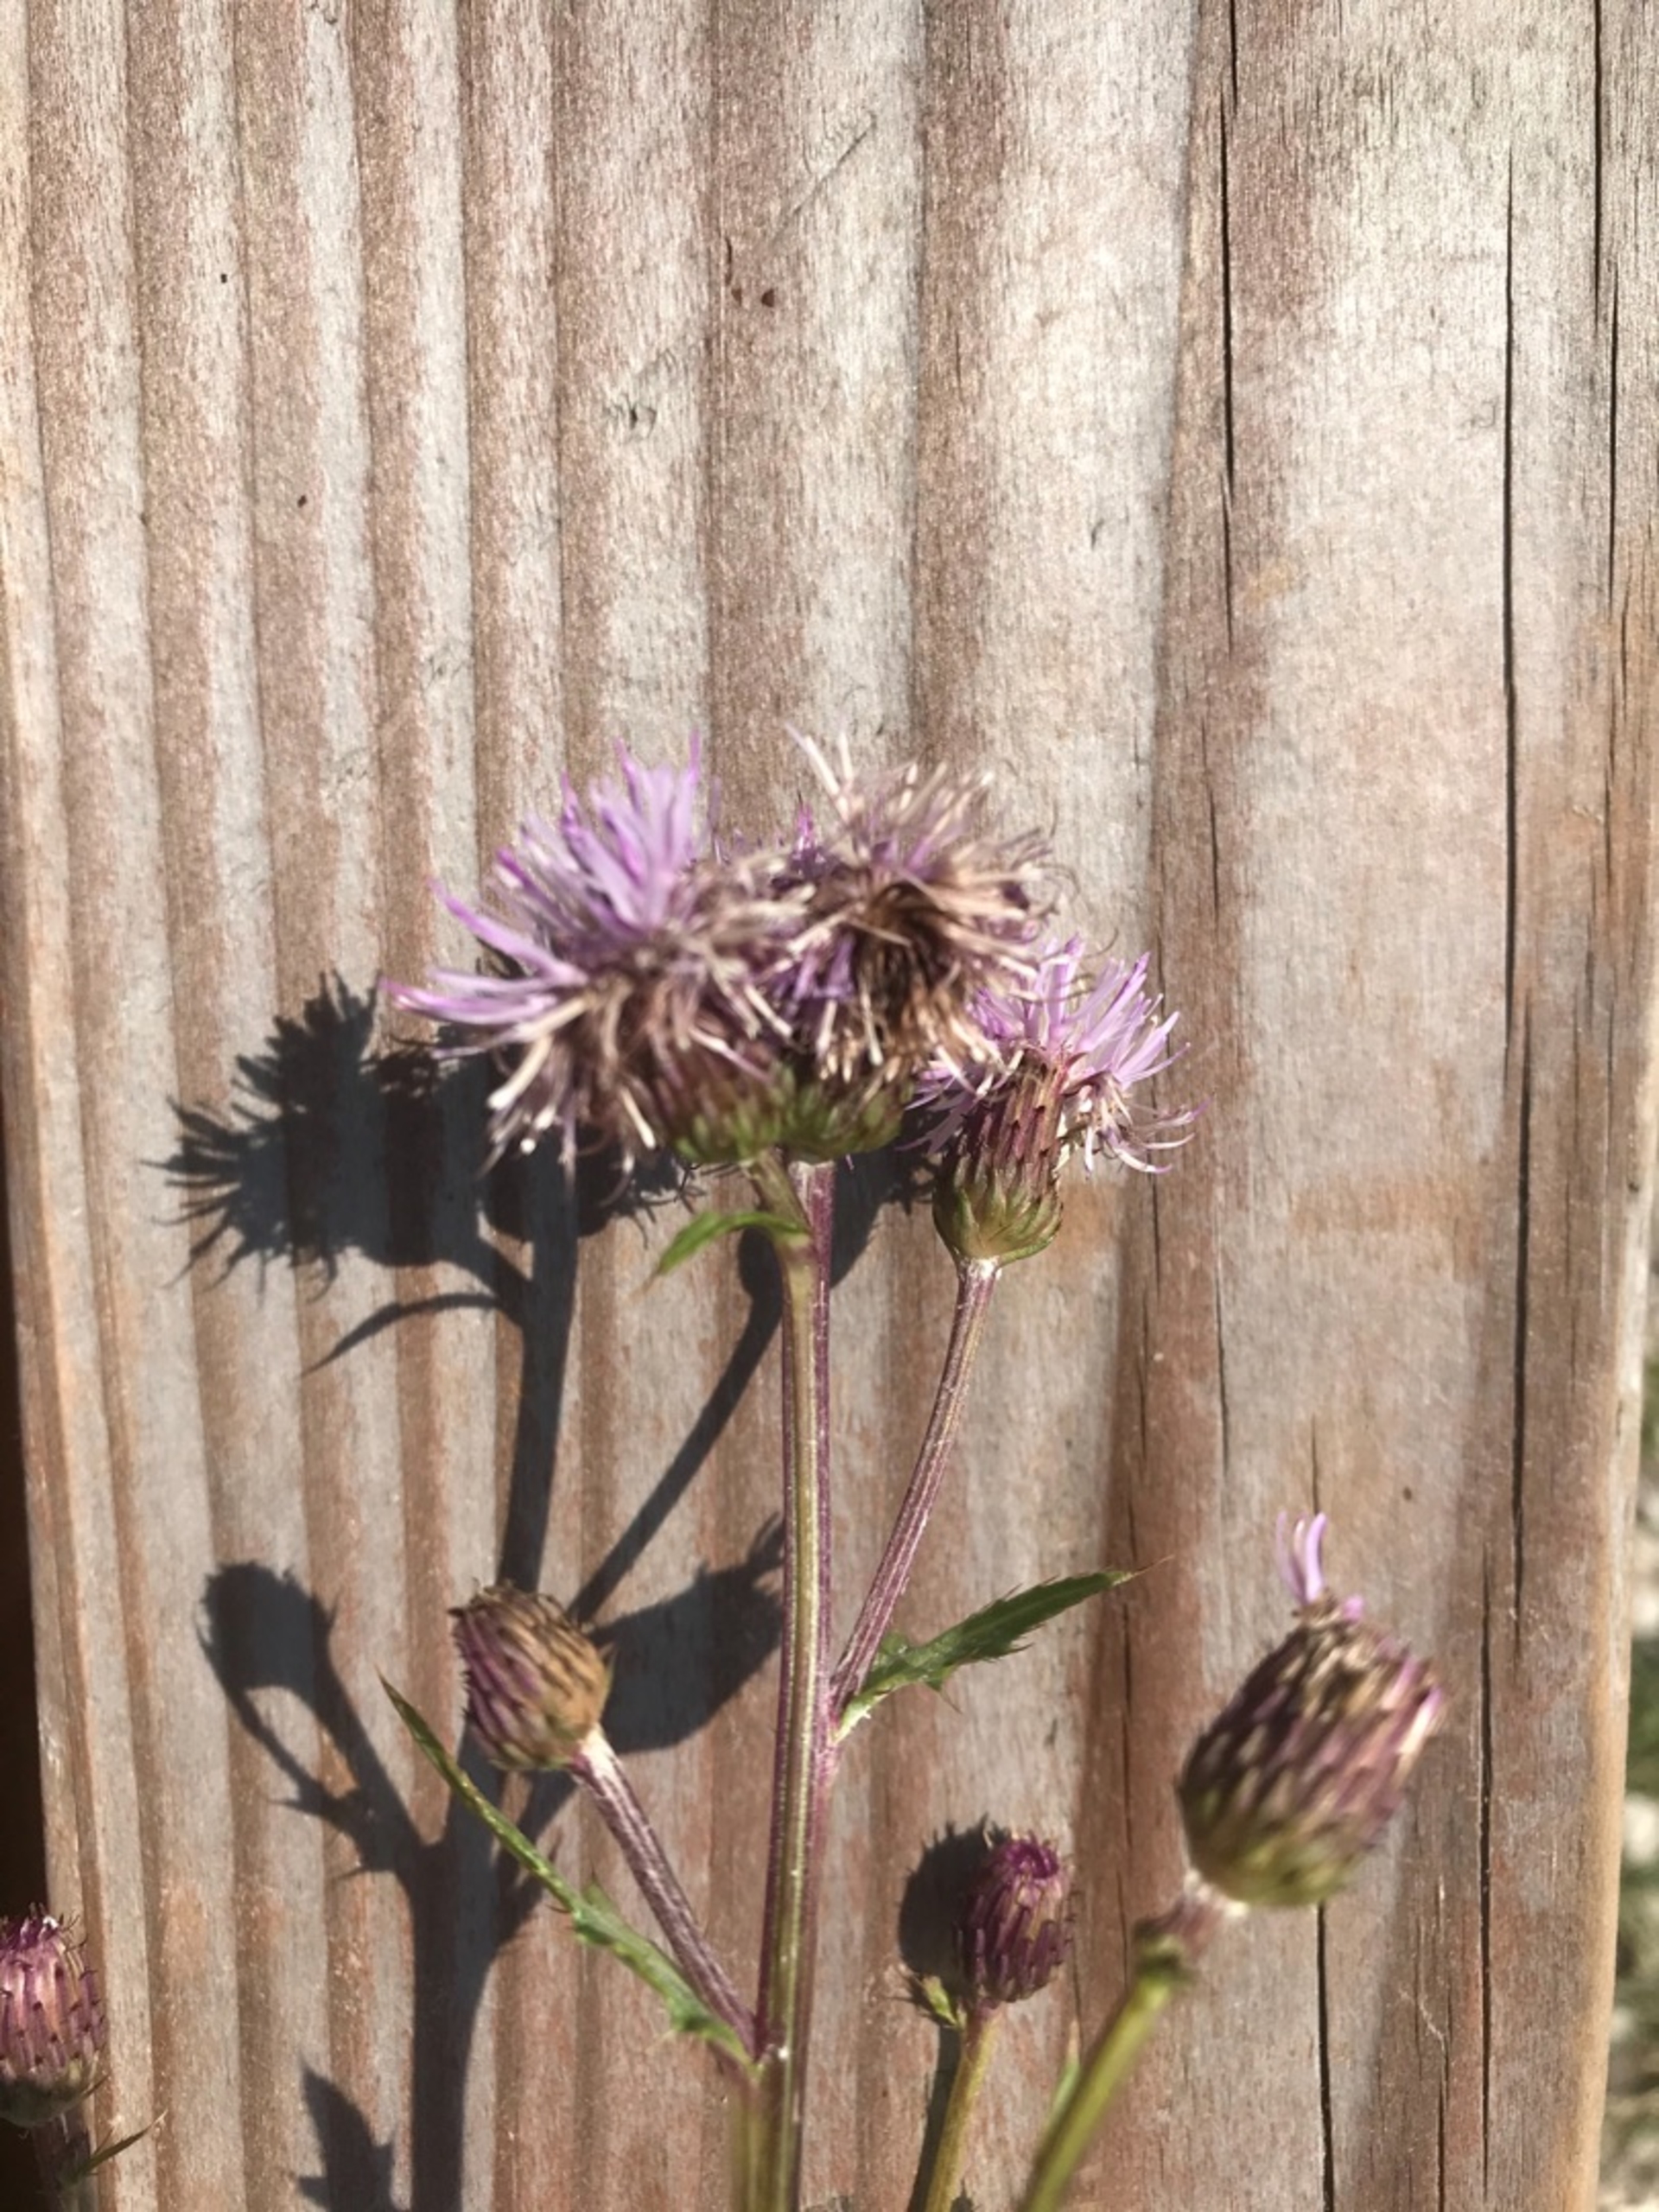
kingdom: Plantae
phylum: Tracheophyta
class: Magnoliopsida
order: Asterales
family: Asteraceae
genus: Cirsium
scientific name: Cirsium arvense
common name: Ager-tidsel
